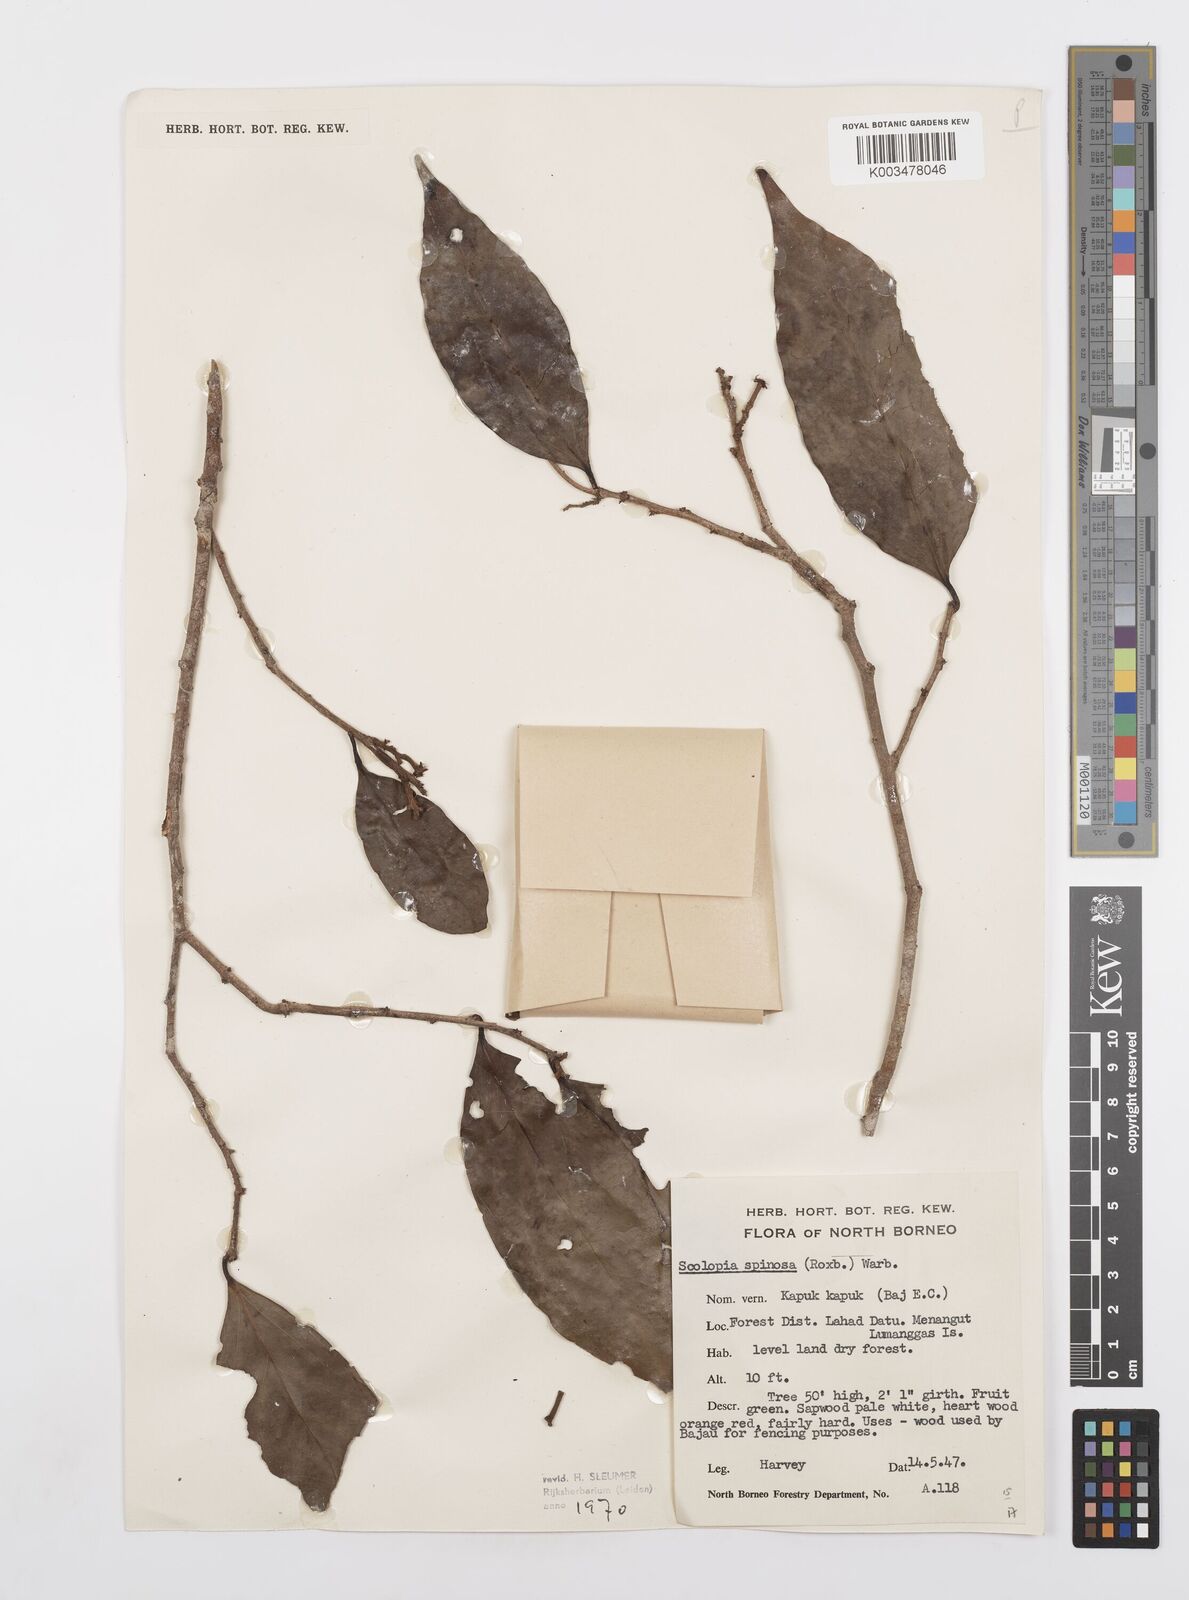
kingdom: Plantae
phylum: Tracheophyta
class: Magnoliopsida
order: Malpighiales
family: Salicaceae
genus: Scolopia
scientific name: Scolopia spinosa
